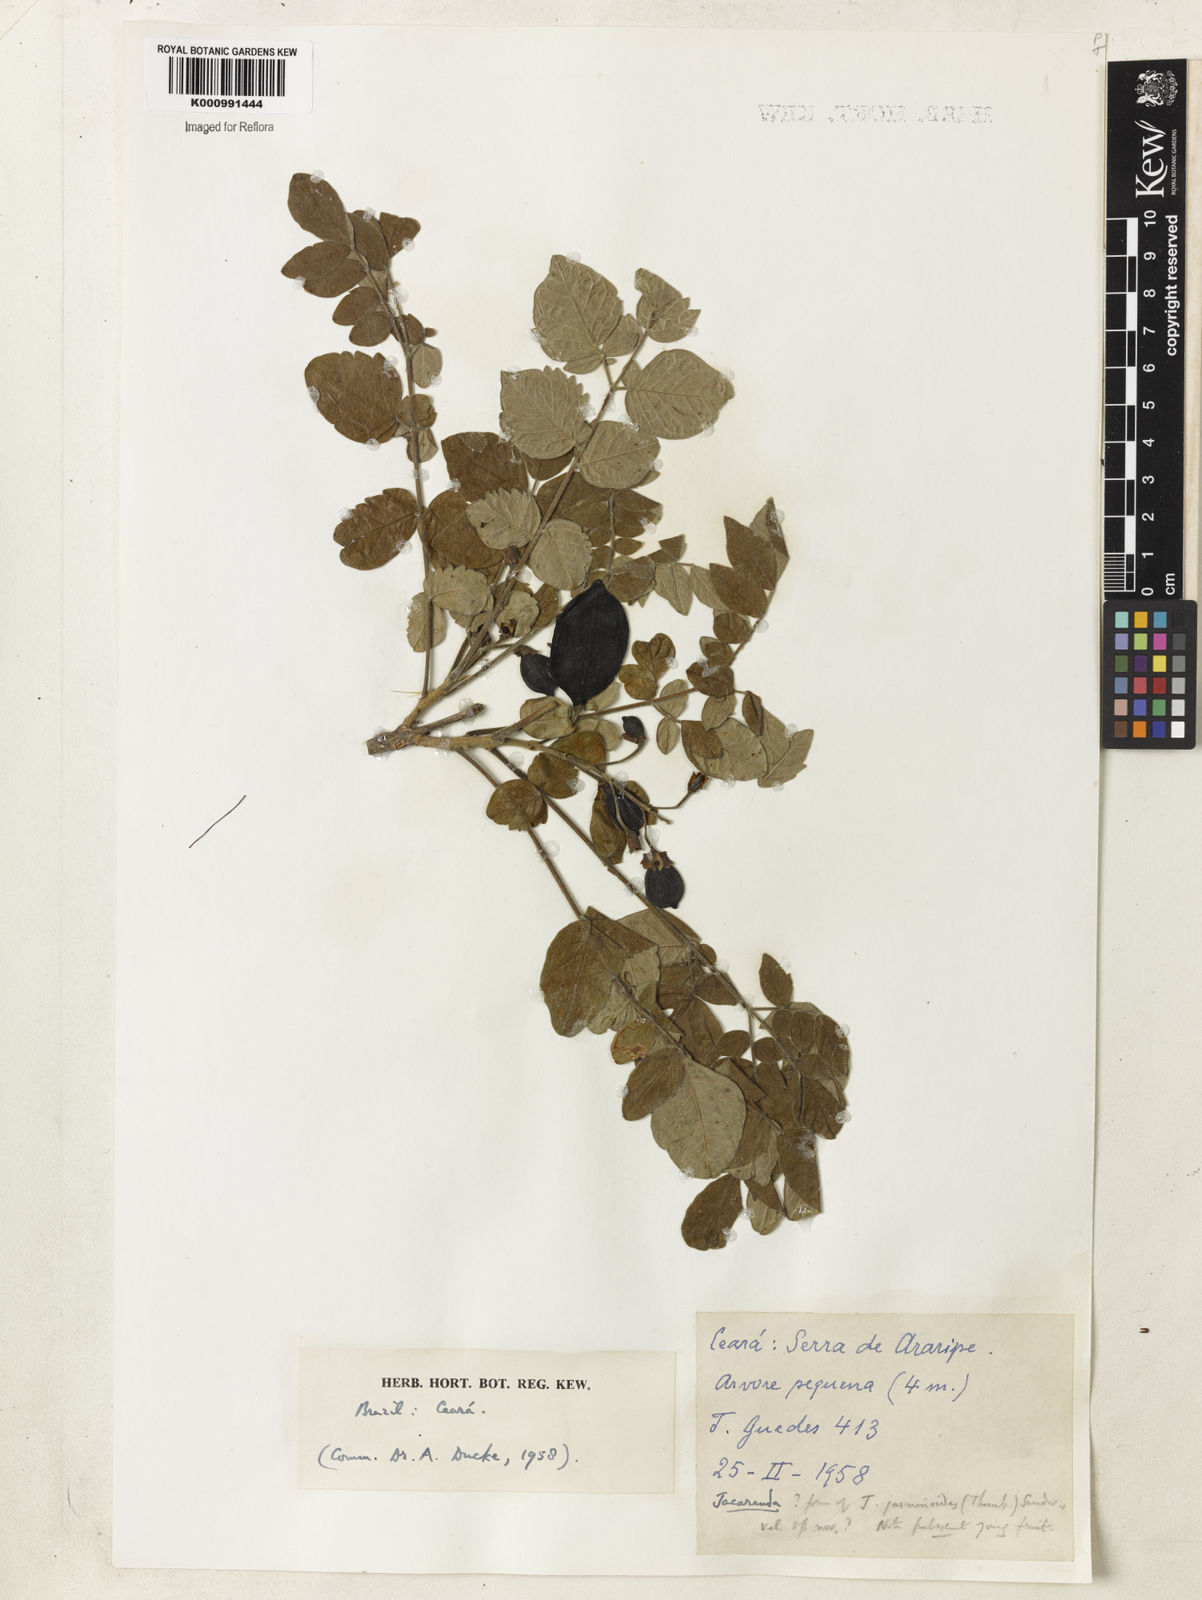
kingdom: Plantae
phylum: Tracheophyta
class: Magnoliopsida
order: Lamiales
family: Bignoniaceae
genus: Jacaranda
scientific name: Jacaranda jasminoides
